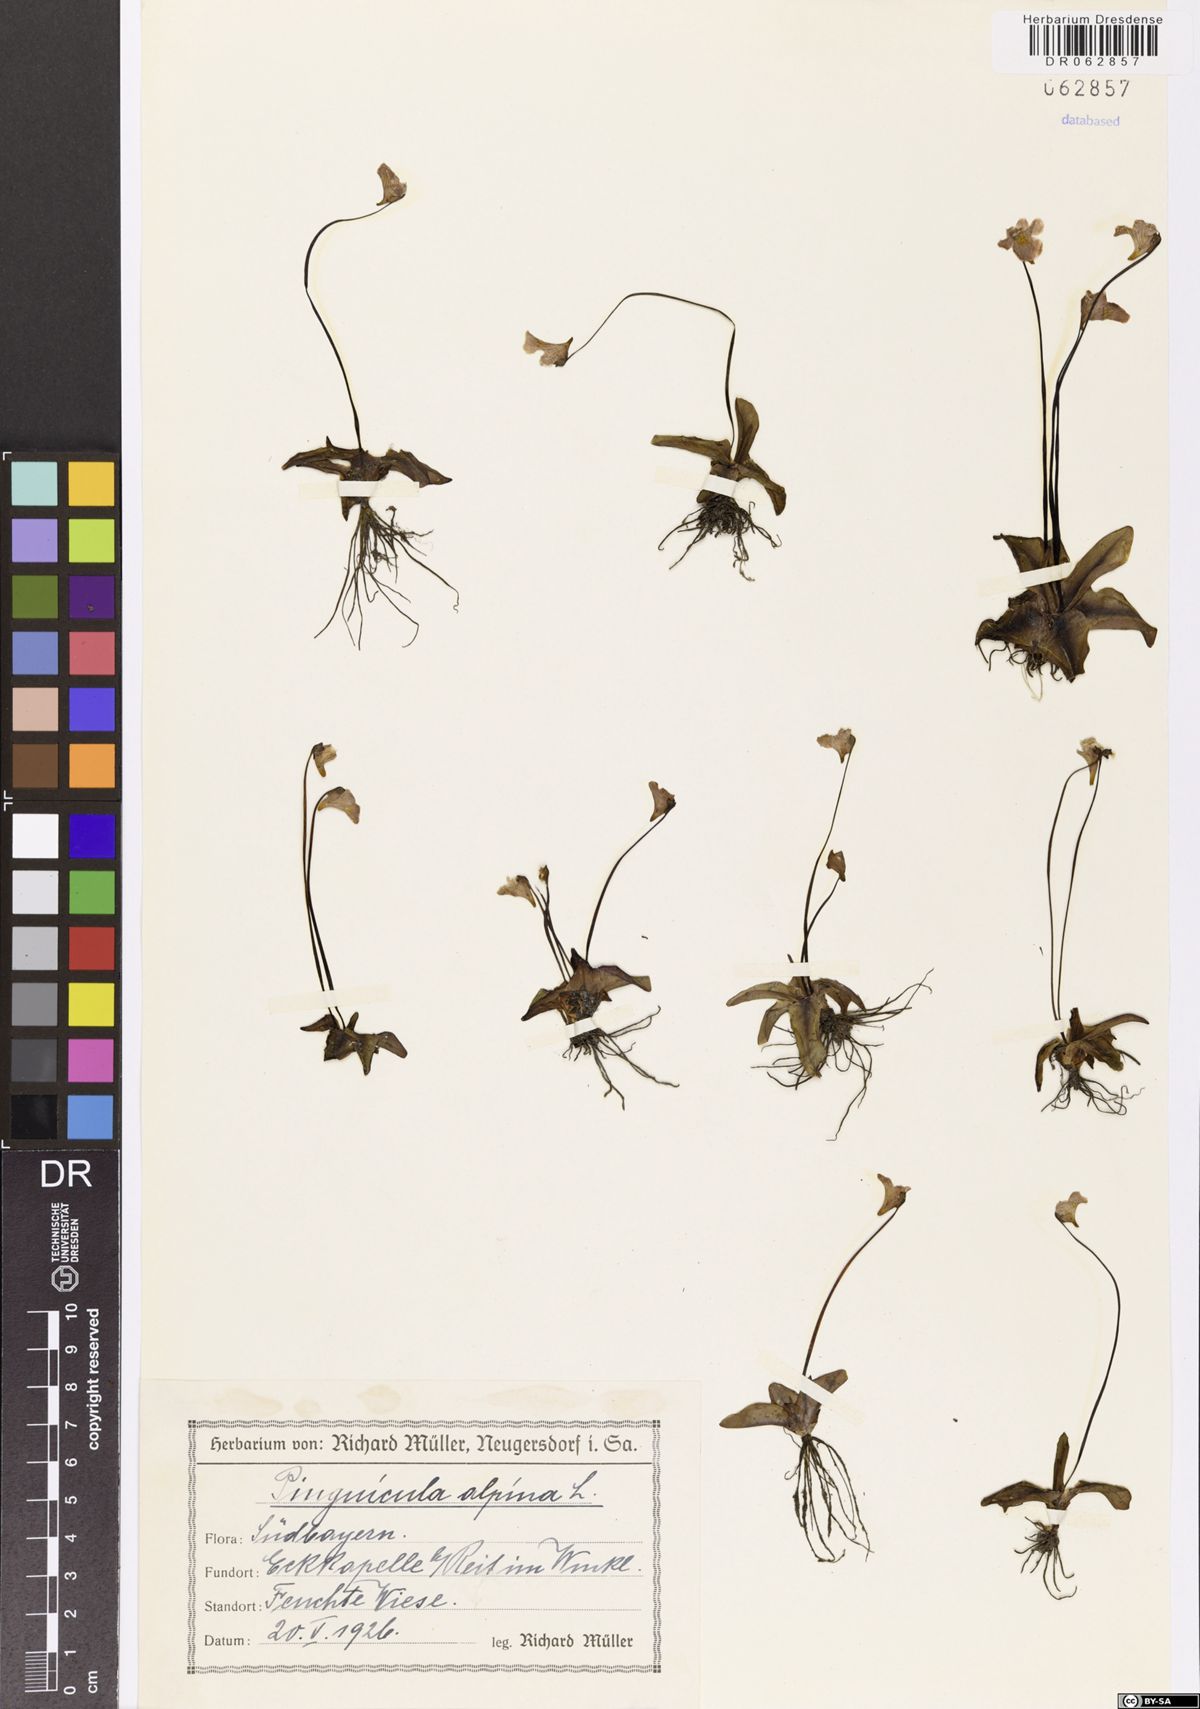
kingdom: Plantae
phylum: Tracheophyta
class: Magnoliopsida
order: Lamiales
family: Lentibulariaceae
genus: Pinguicula
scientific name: Pinguicula alpina
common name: Alpine butterwort
